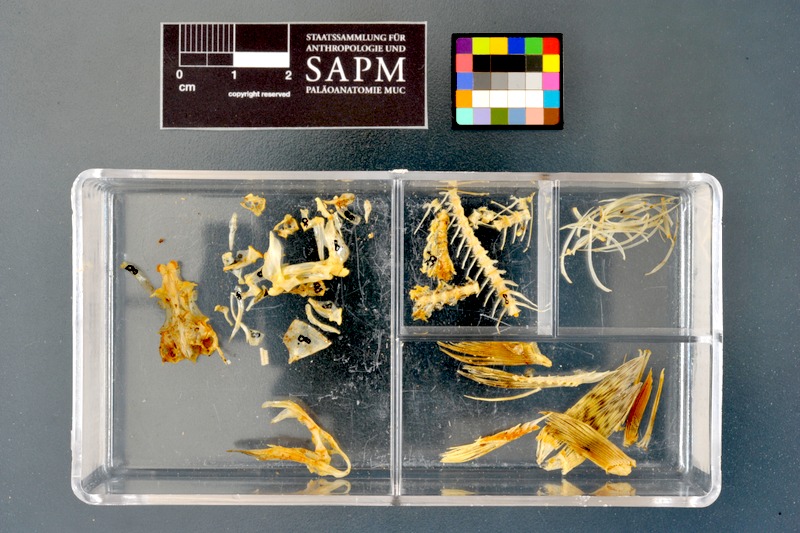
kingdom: Animalia
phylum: Chordata
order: Cypriniformes
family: Cyprinidae
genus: Gobio
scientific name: Gobio gobio
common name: Gudgeon
